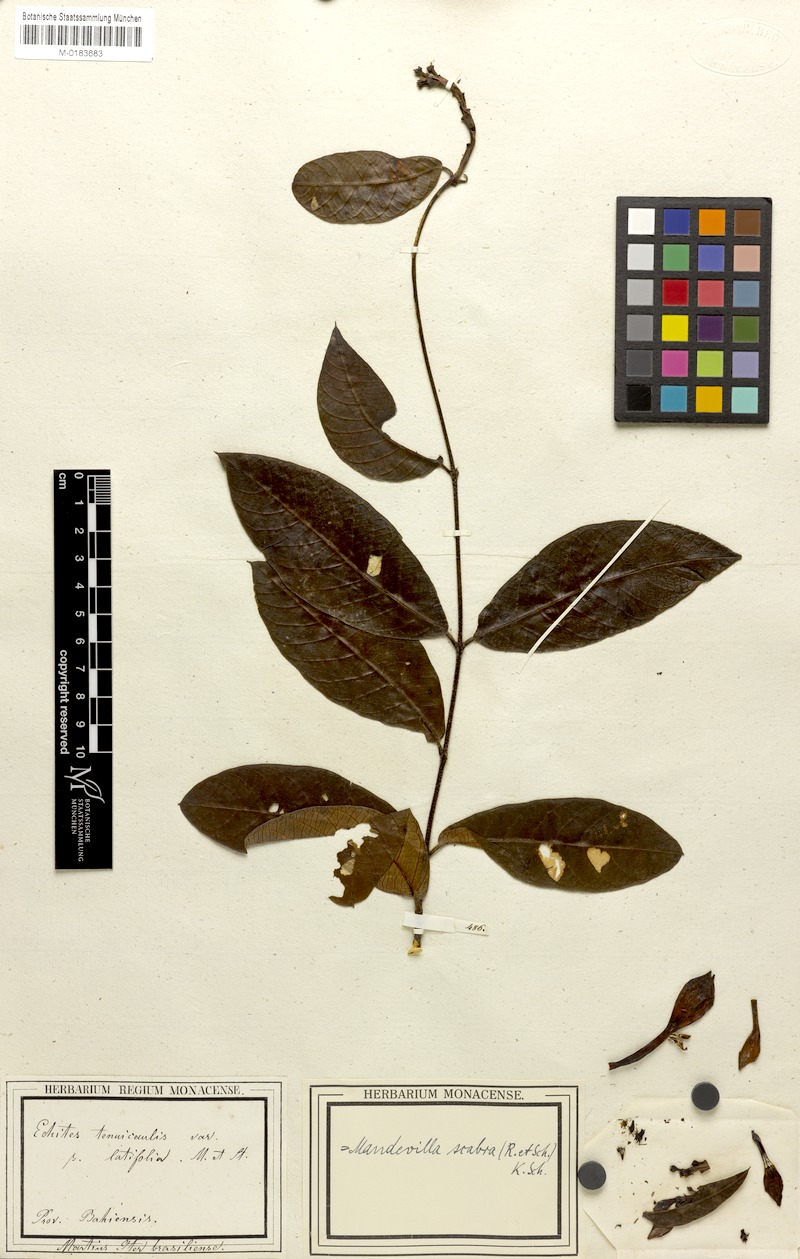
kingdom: Plantae
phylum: Tracheophyta
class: Magnoliopsida
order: Gentianales
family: Apocynaceae
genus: Mandevilla
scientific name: Mandevilla scabra
